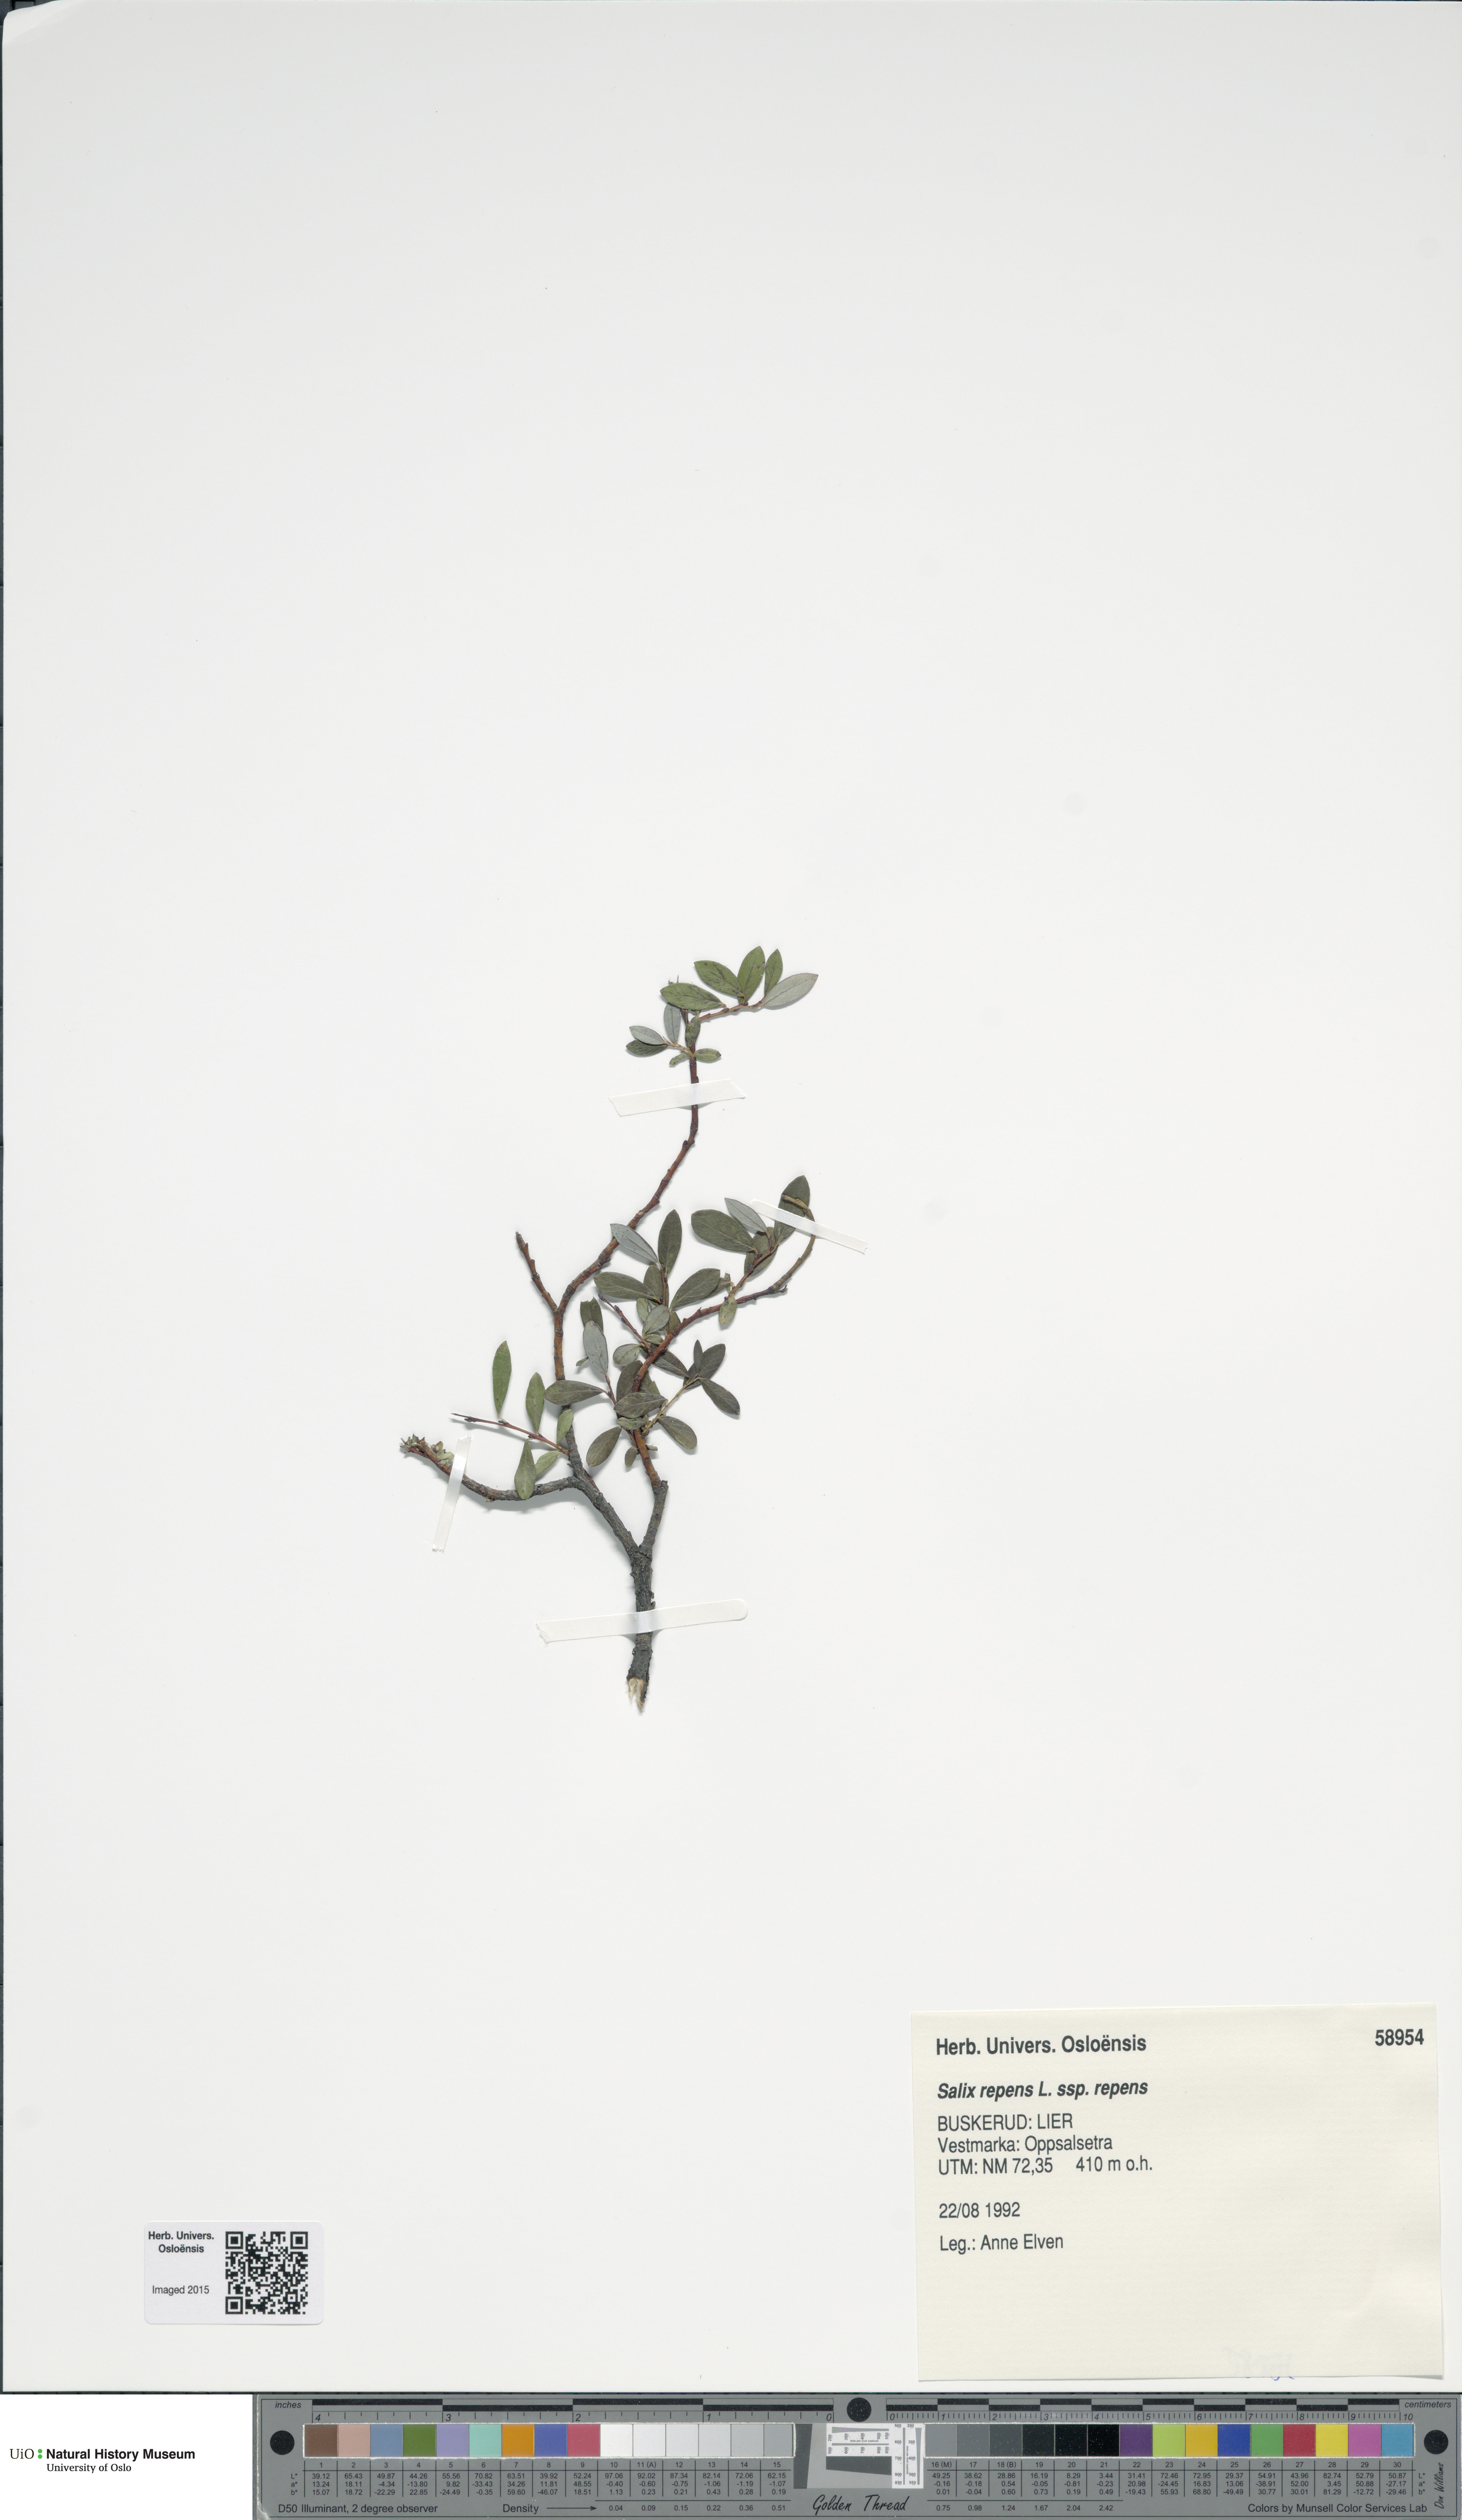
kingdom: Plantae
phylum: Tracheophyta
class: Magnoliopsida
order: Malpighiales
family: Salicaceae
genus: Salix
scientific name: Salix repens
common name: Creeping willow
